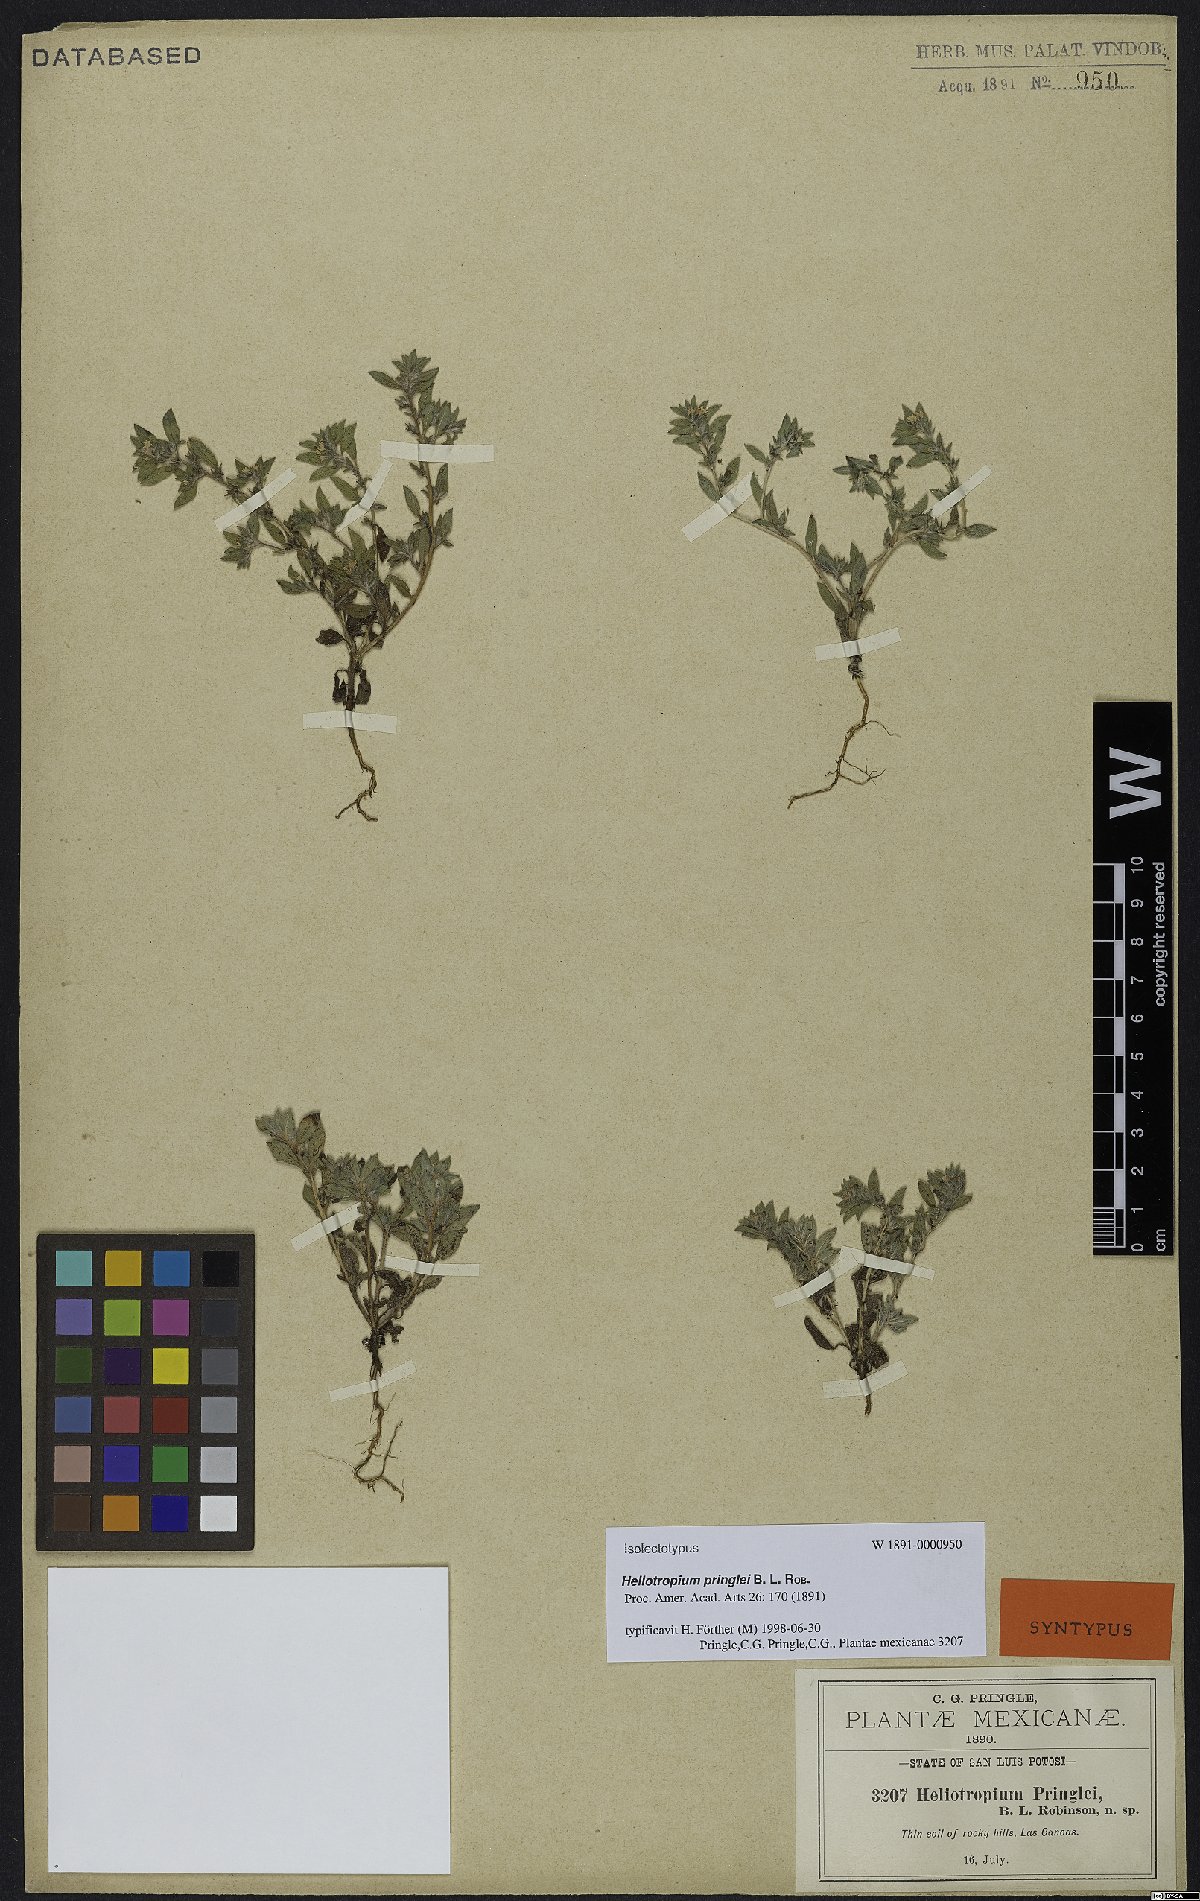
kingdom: Plantae
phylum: Tracheophyta
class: Magnoliopsida
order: Boraginales
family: Heliotropiaceae
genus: Euploca
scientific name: Euploca pringlei
